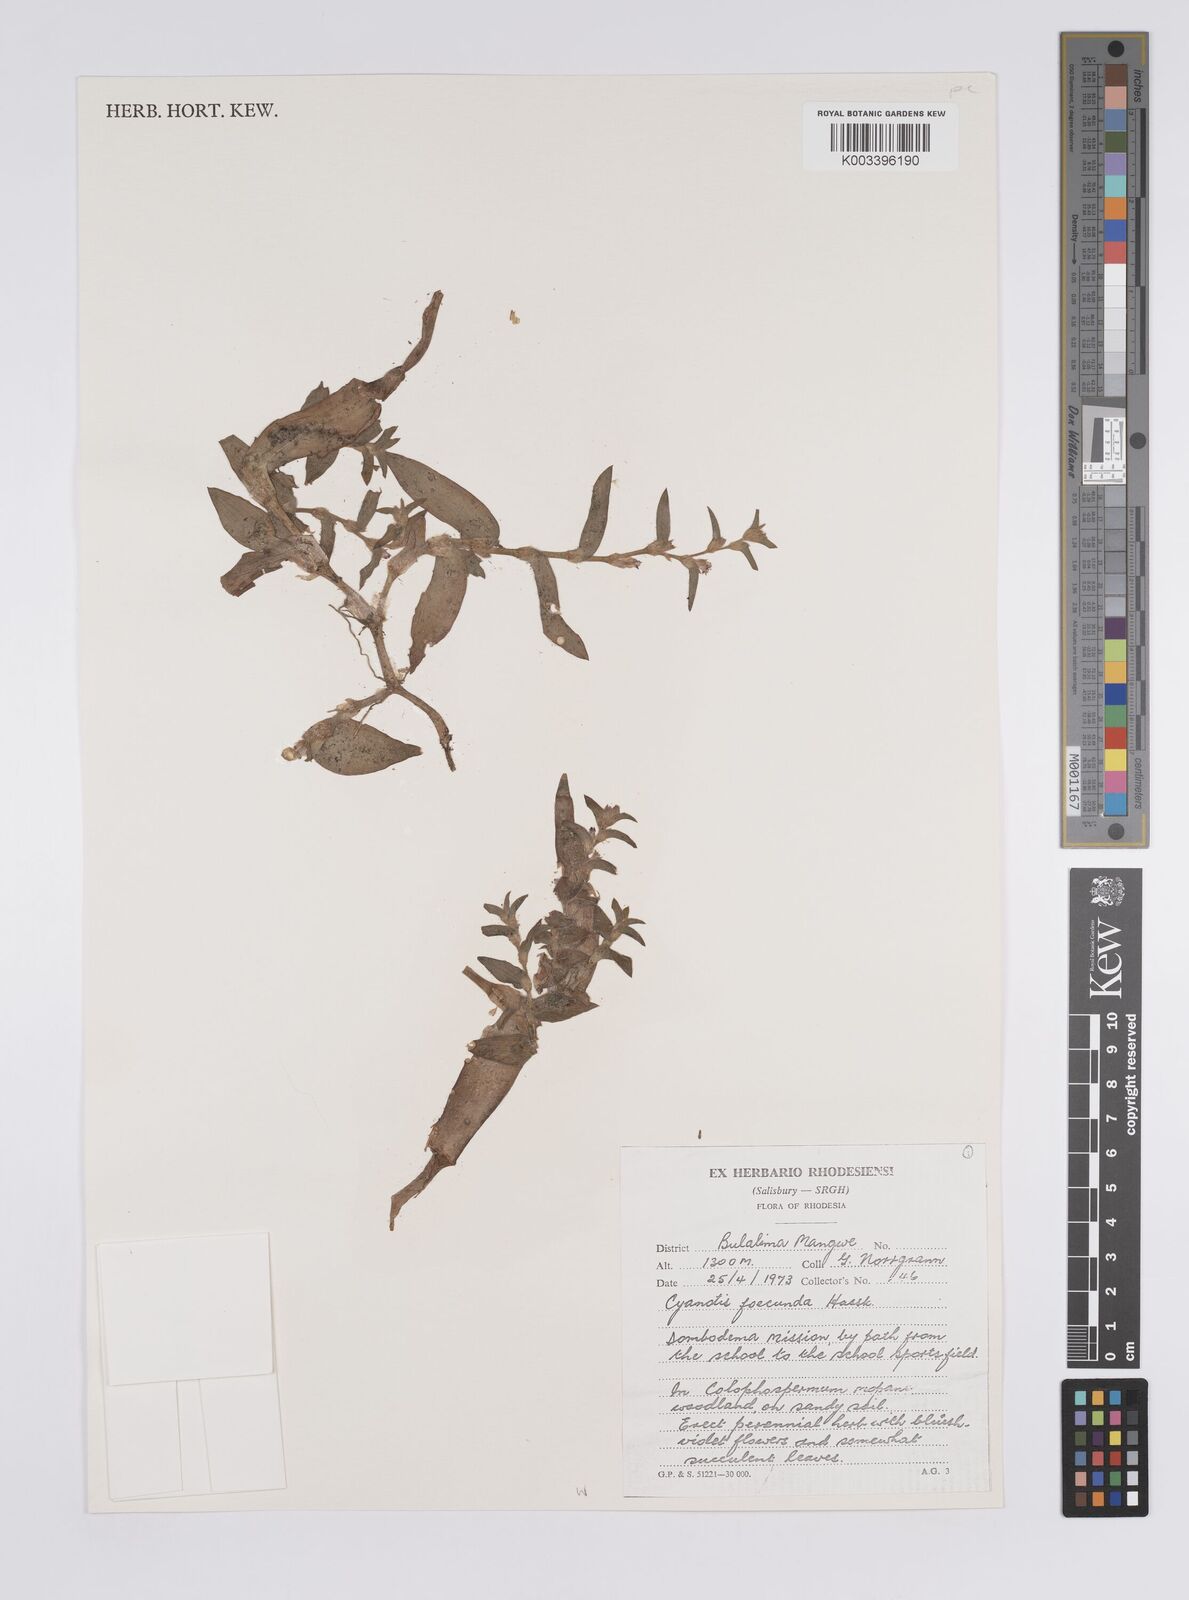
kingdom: Plantae
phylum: Tracheophyta
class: Liliopsida
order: Commelinales
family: Commelinaceae
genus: Cyanotis
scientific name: Cyanotis foecunda
